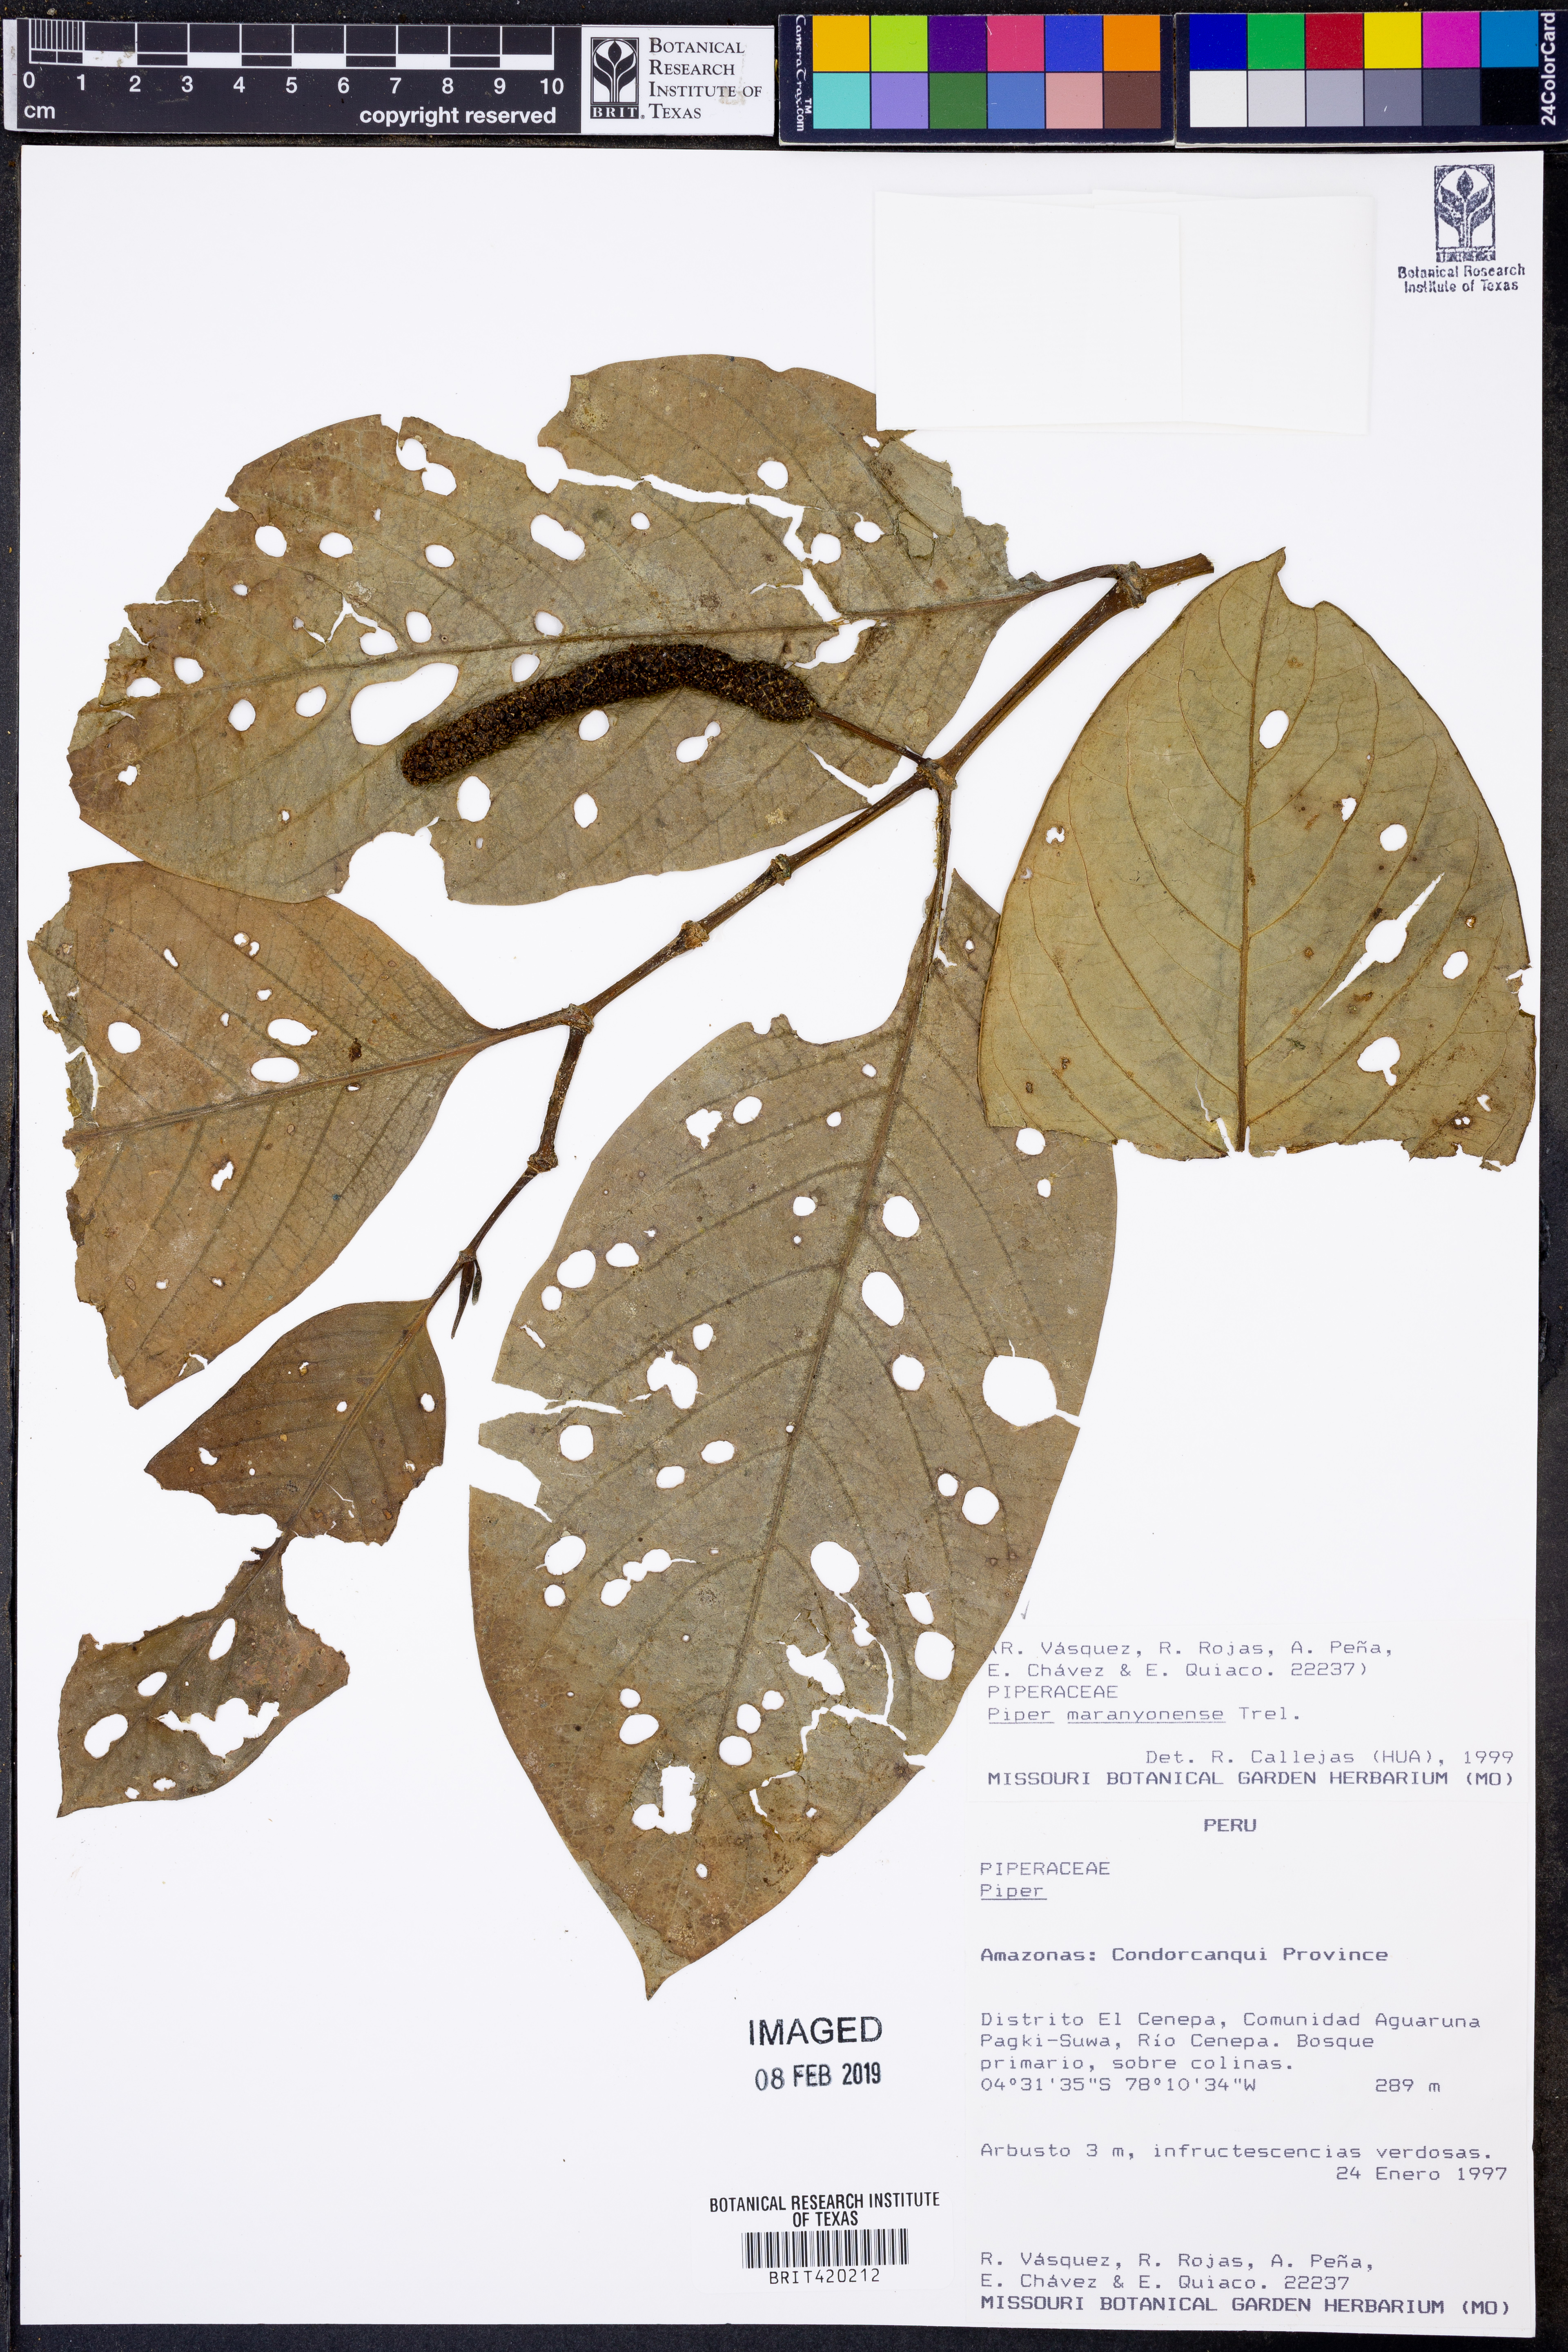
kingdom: Plantae
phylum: Tracheophyta
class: Magnoliopsida
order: Piperales
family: Piperaceae
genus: Piper
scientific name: Piper maranyonense
